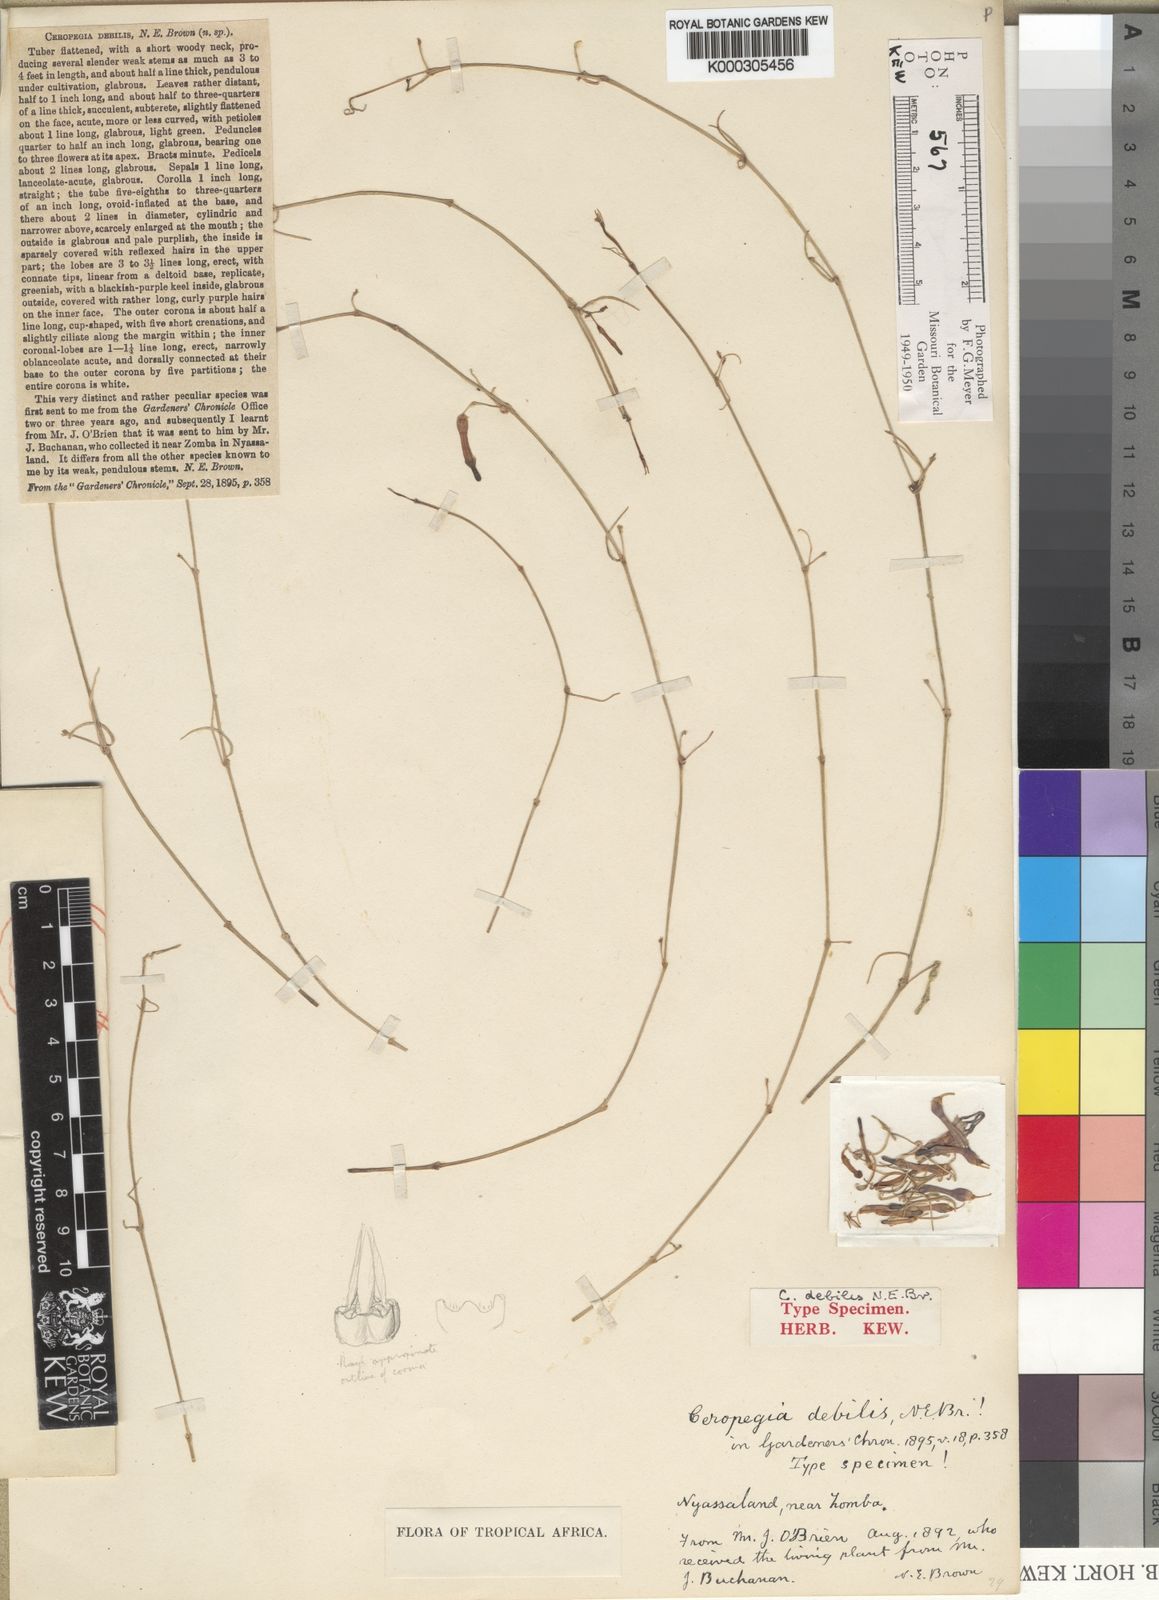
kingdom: Plantae
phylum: Tracheophyta
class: Magnoliopsida
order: Gentianales
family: Apocynaceae
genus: Ceropegia
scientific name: Ceropegia linearis
